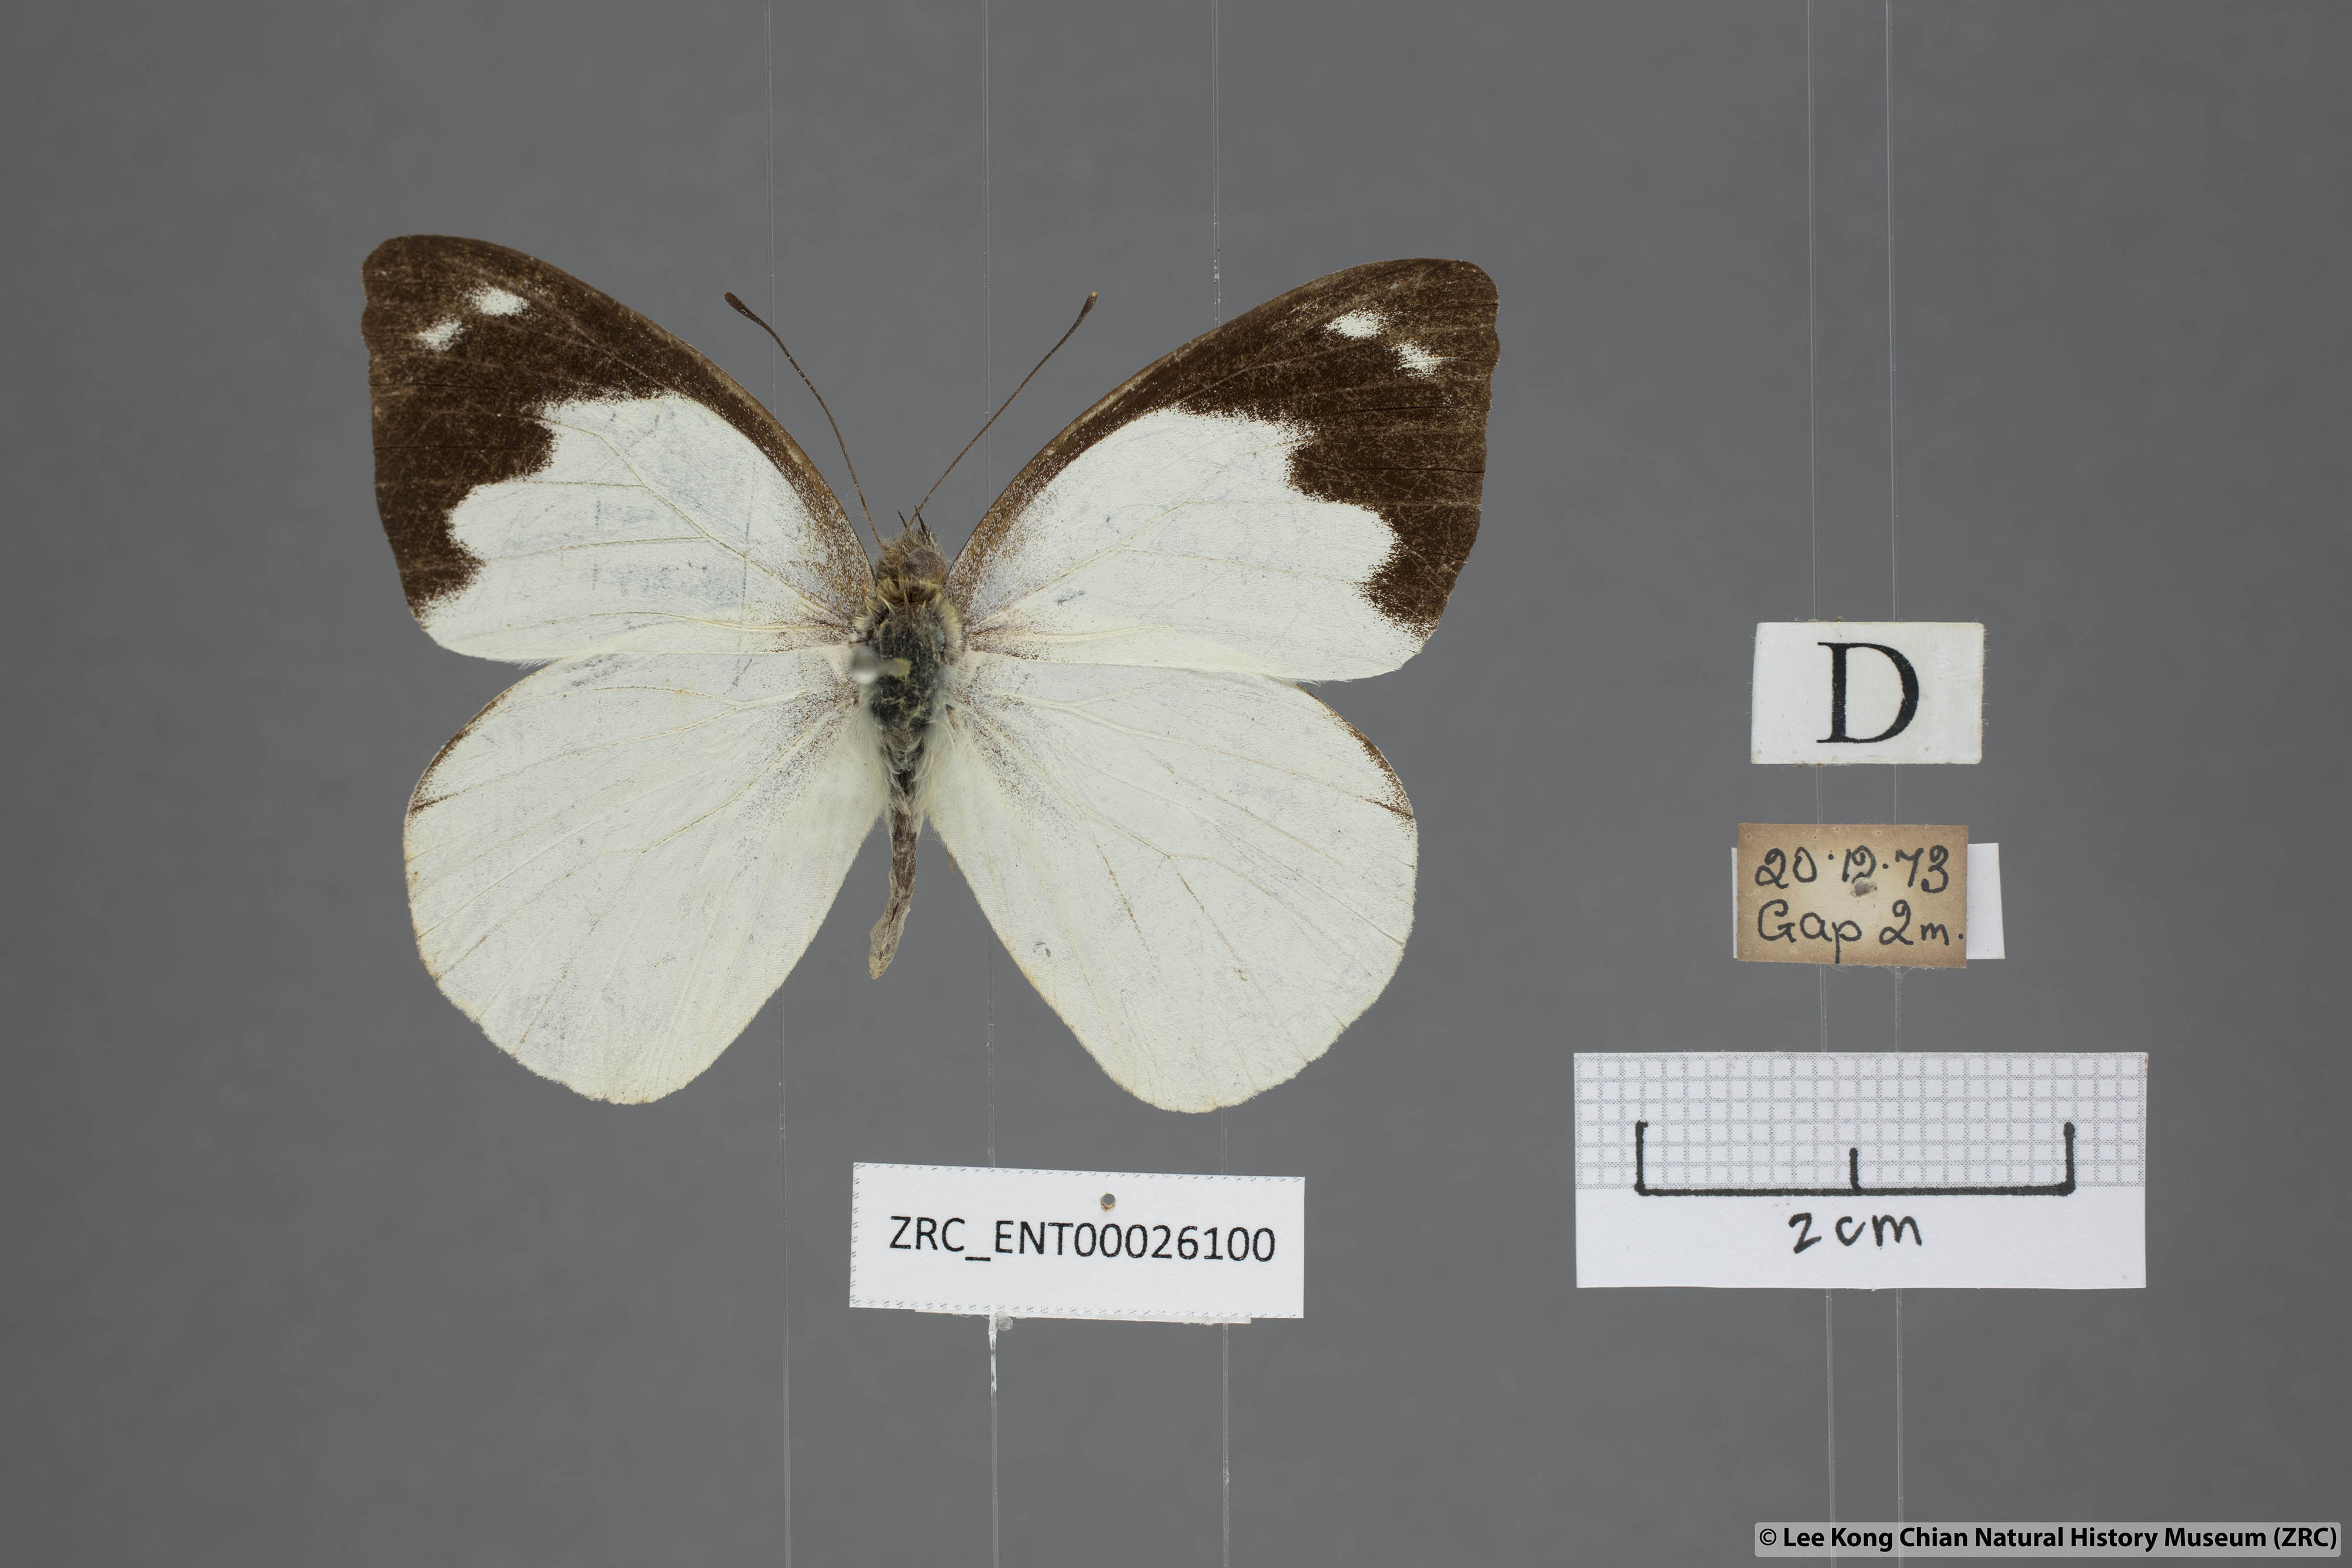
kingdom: Animalia
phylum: Arthropoda
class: Insecta
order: Lepidoptera
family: Pieridae
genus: Appias
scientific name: Appias indra
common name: Plain puffin
